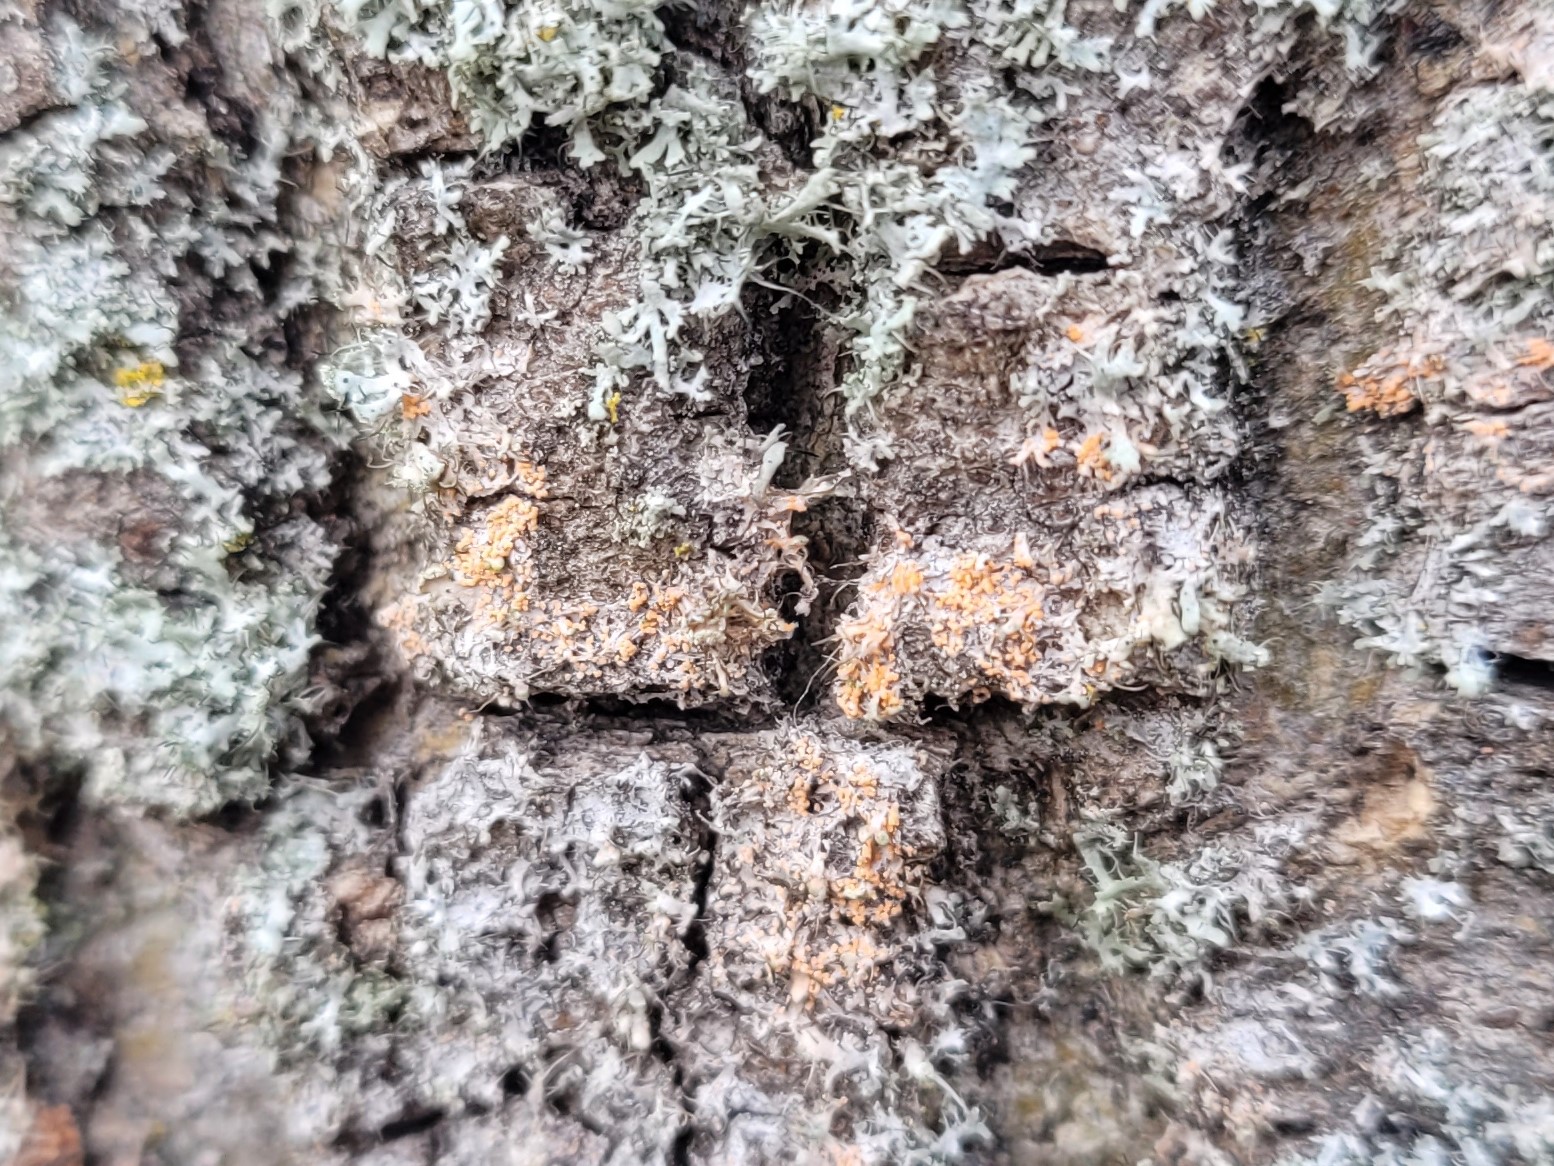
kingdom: Fungi
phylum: Basidiomycota
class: Agaricomycetes
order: Corticiales
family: Corticiaceae
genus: Erythricium
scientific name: Erythricium aurantiacum
